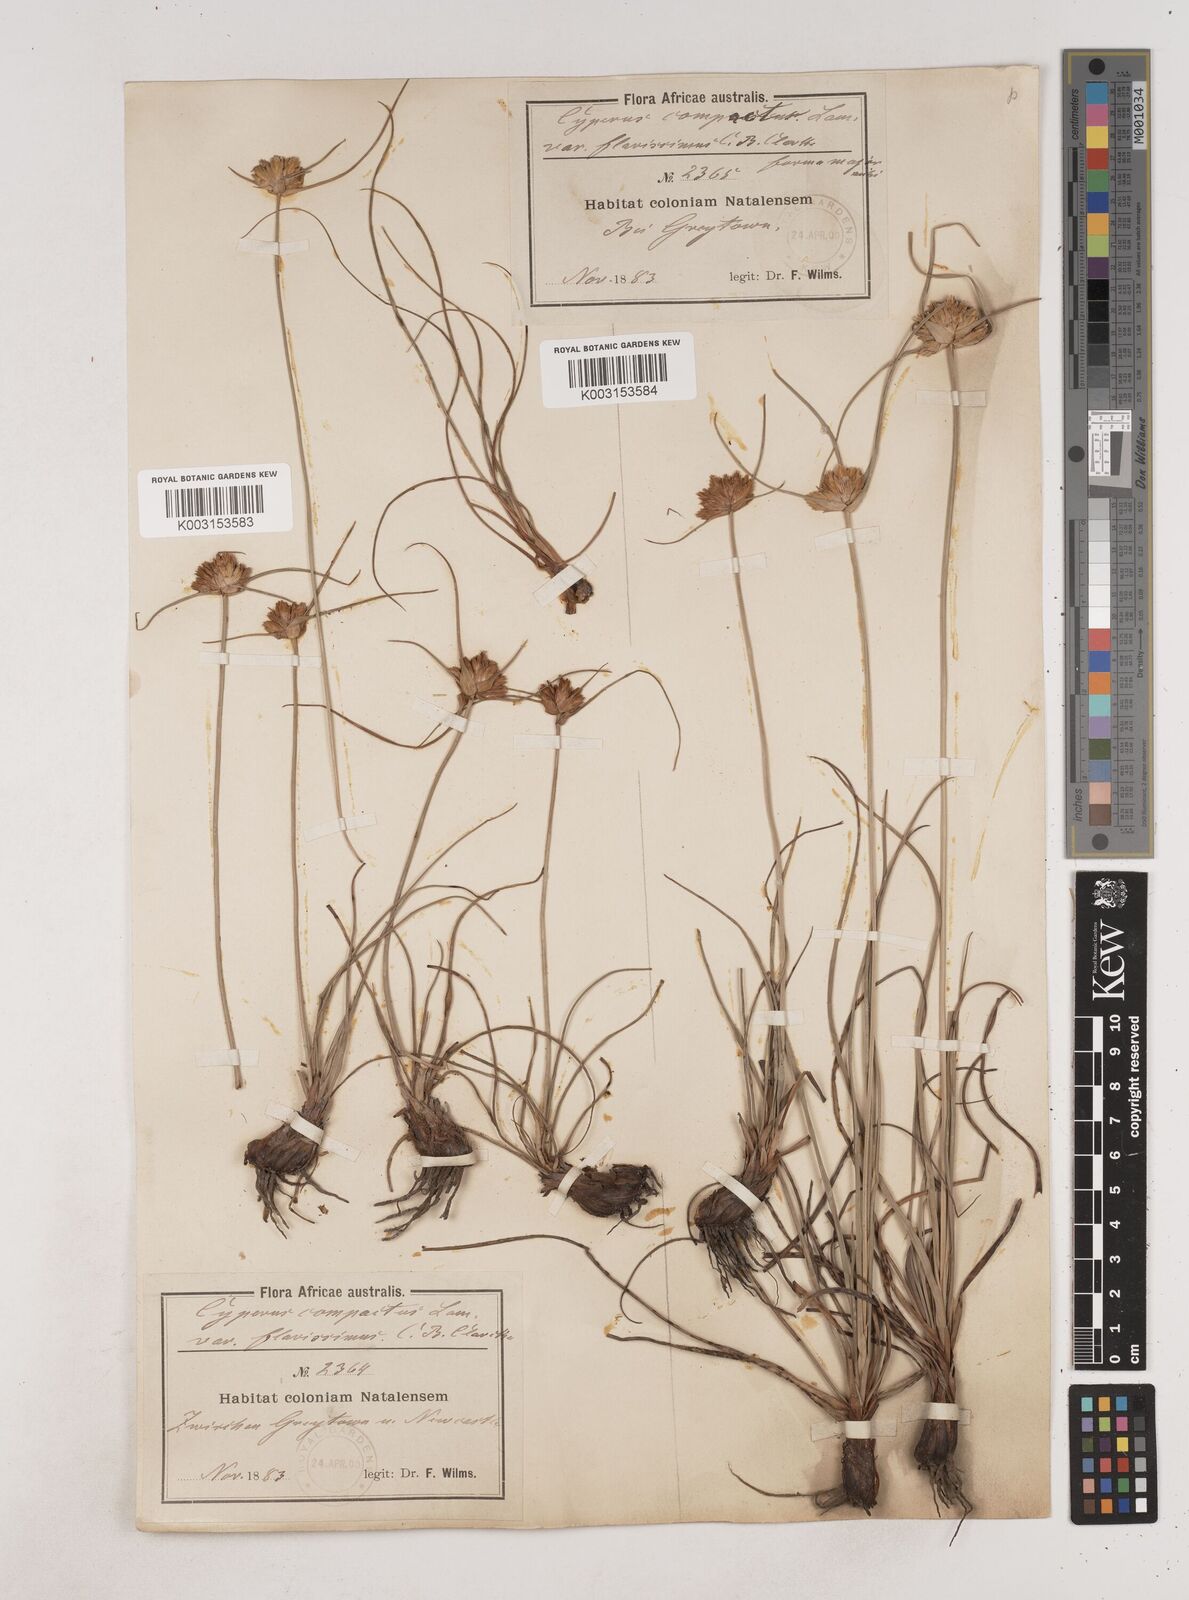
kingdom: Plantae
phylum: Tracheophyta
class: Liliopsida
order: Poales
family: Cyperaceae
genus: Cyperus
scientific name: Cyperus niveus
